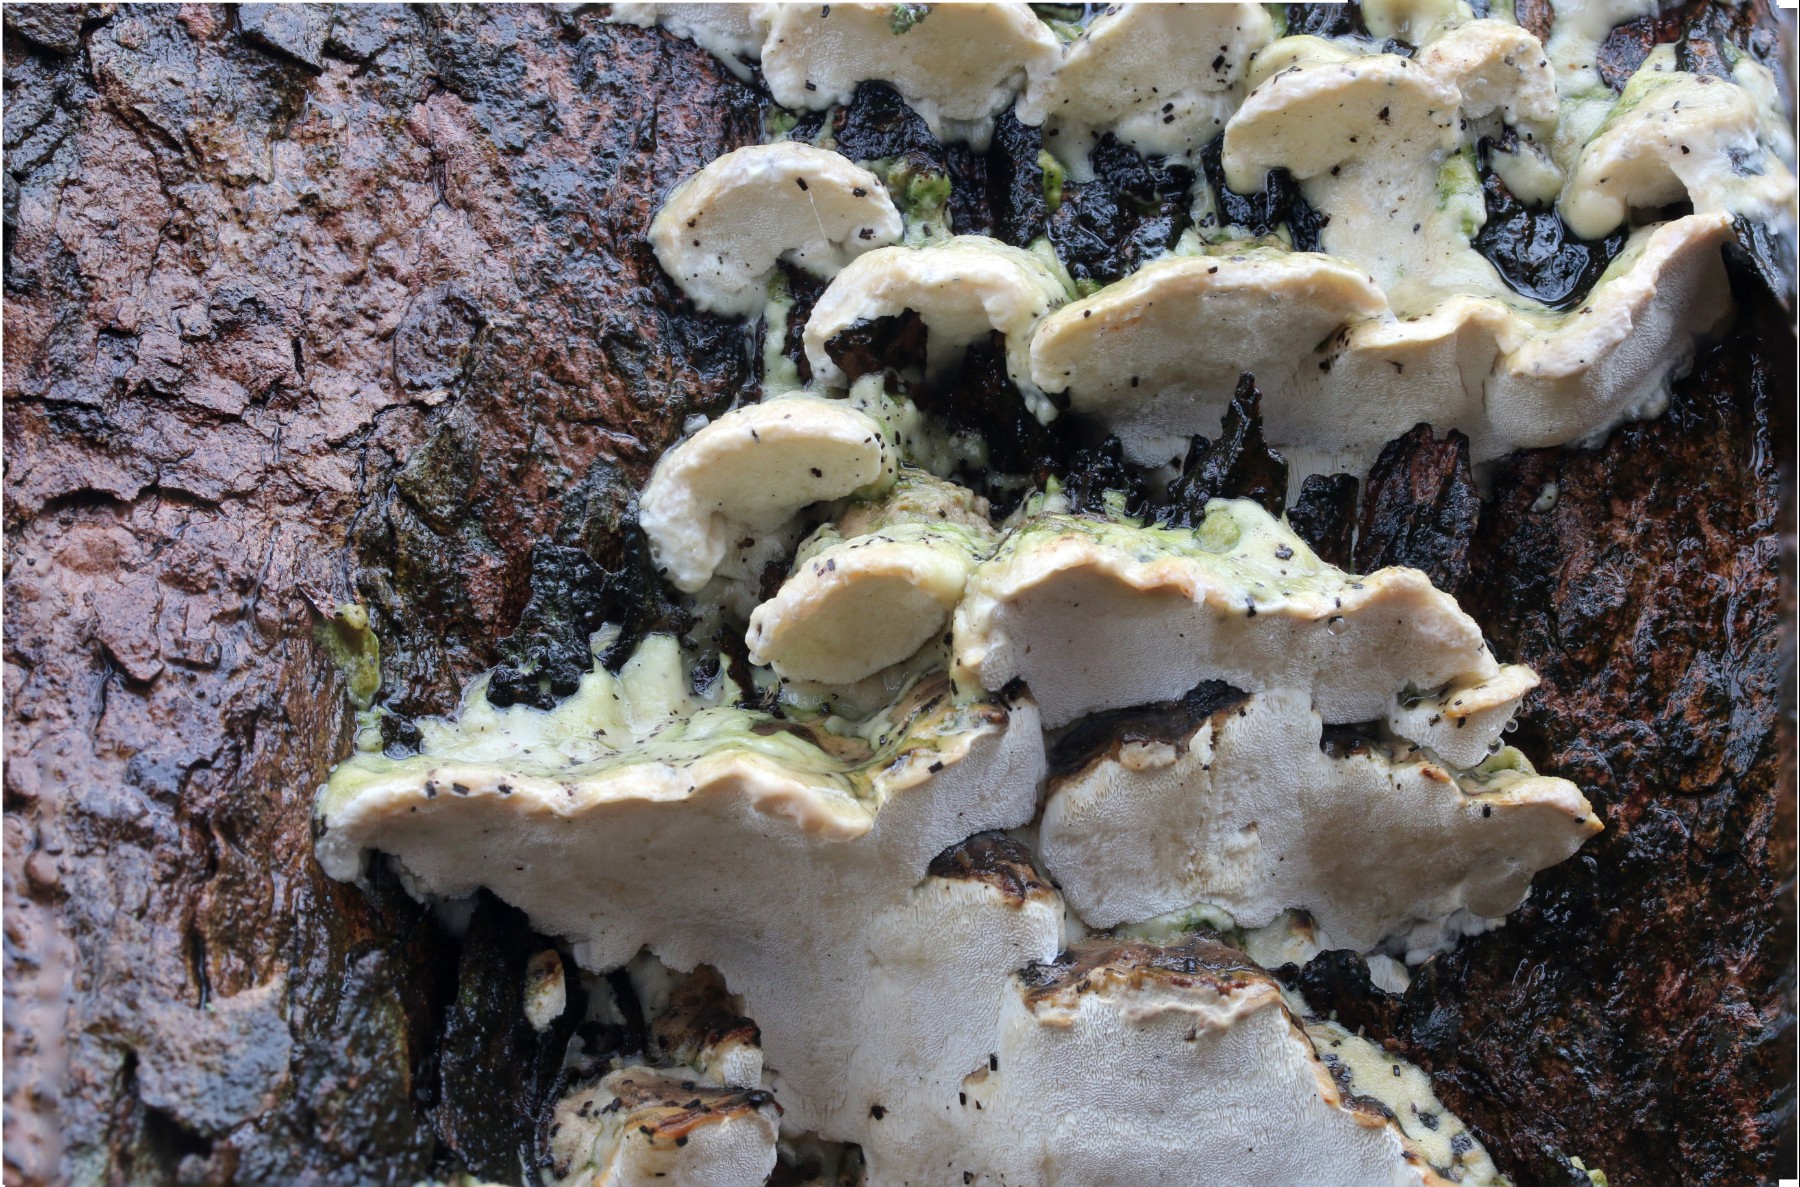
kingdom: Fungi
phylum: Basidiomycota
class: Agaricomycetes
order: Hymenochaetales
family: Oxyporaceae
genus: Oxyporus
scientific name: Oxyporus populinus
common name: sammenvokset trylleporesvamp
